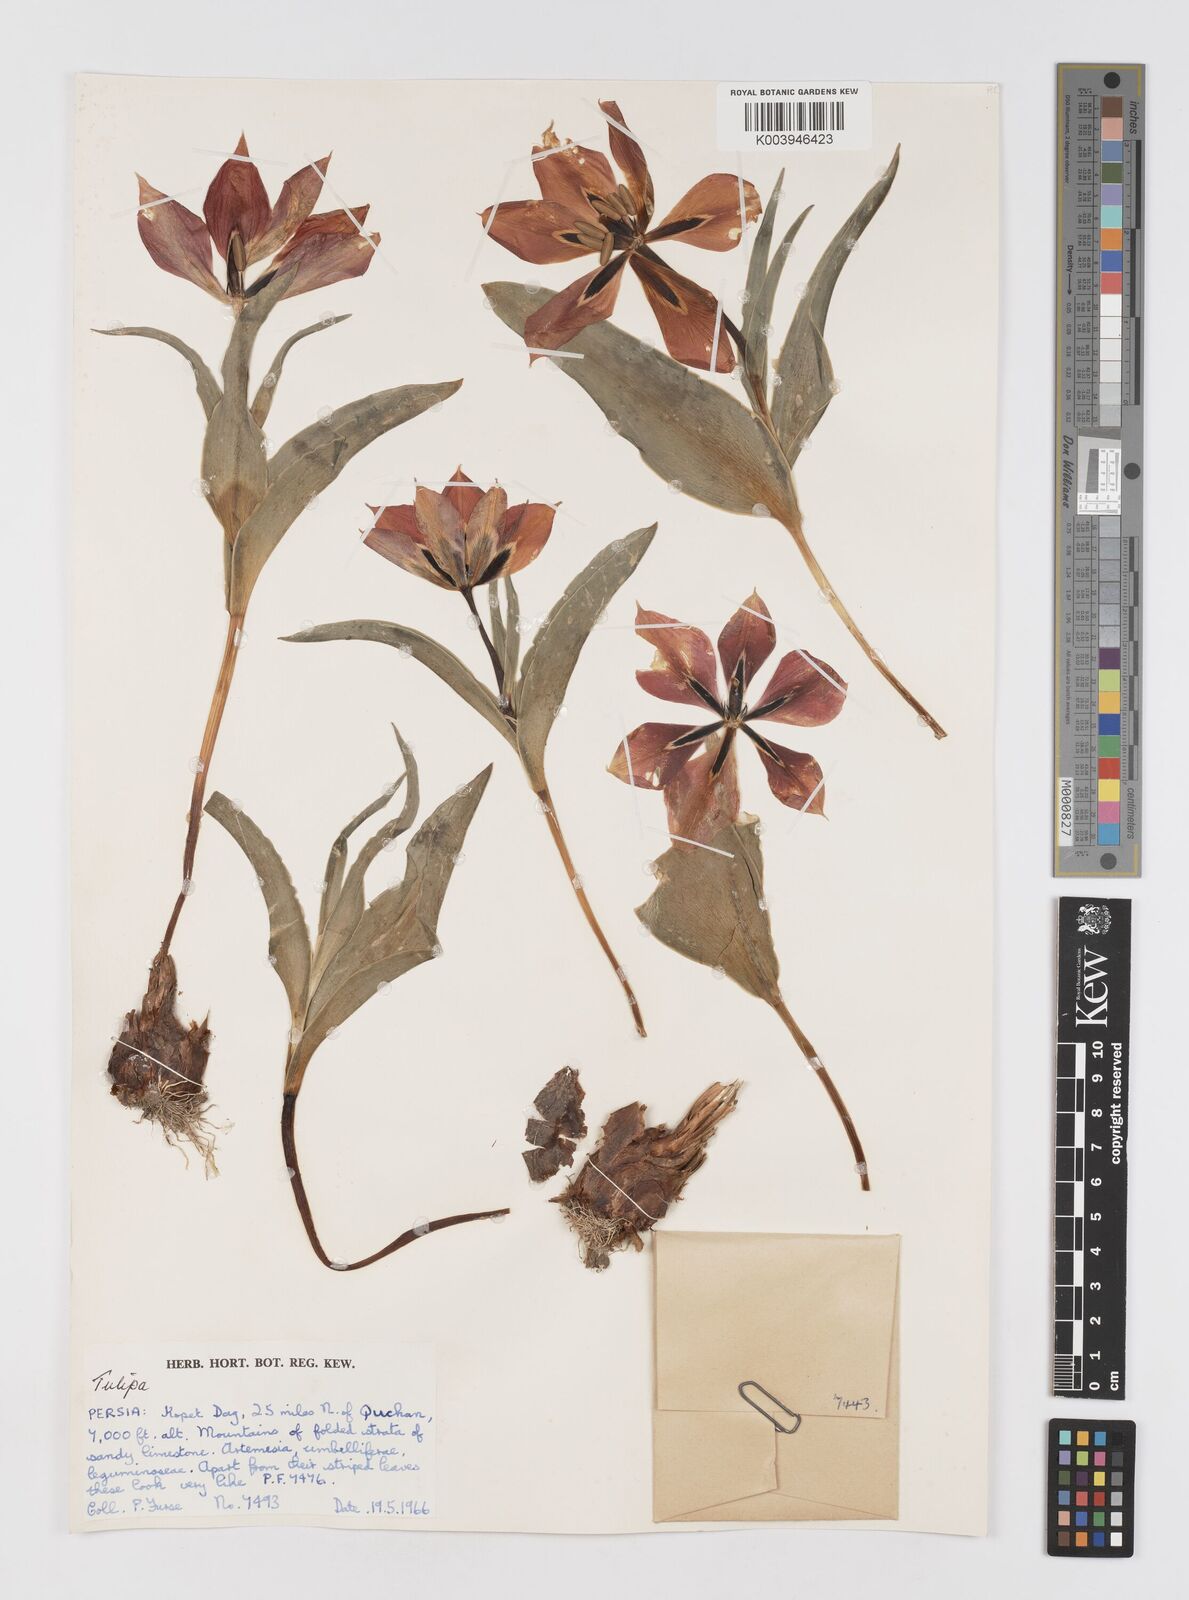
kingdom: Plantae
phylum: Tracheophyta
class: Liliopsida
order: Liliales
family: Liliaceae
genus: Tulipa
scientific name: Tulipa
